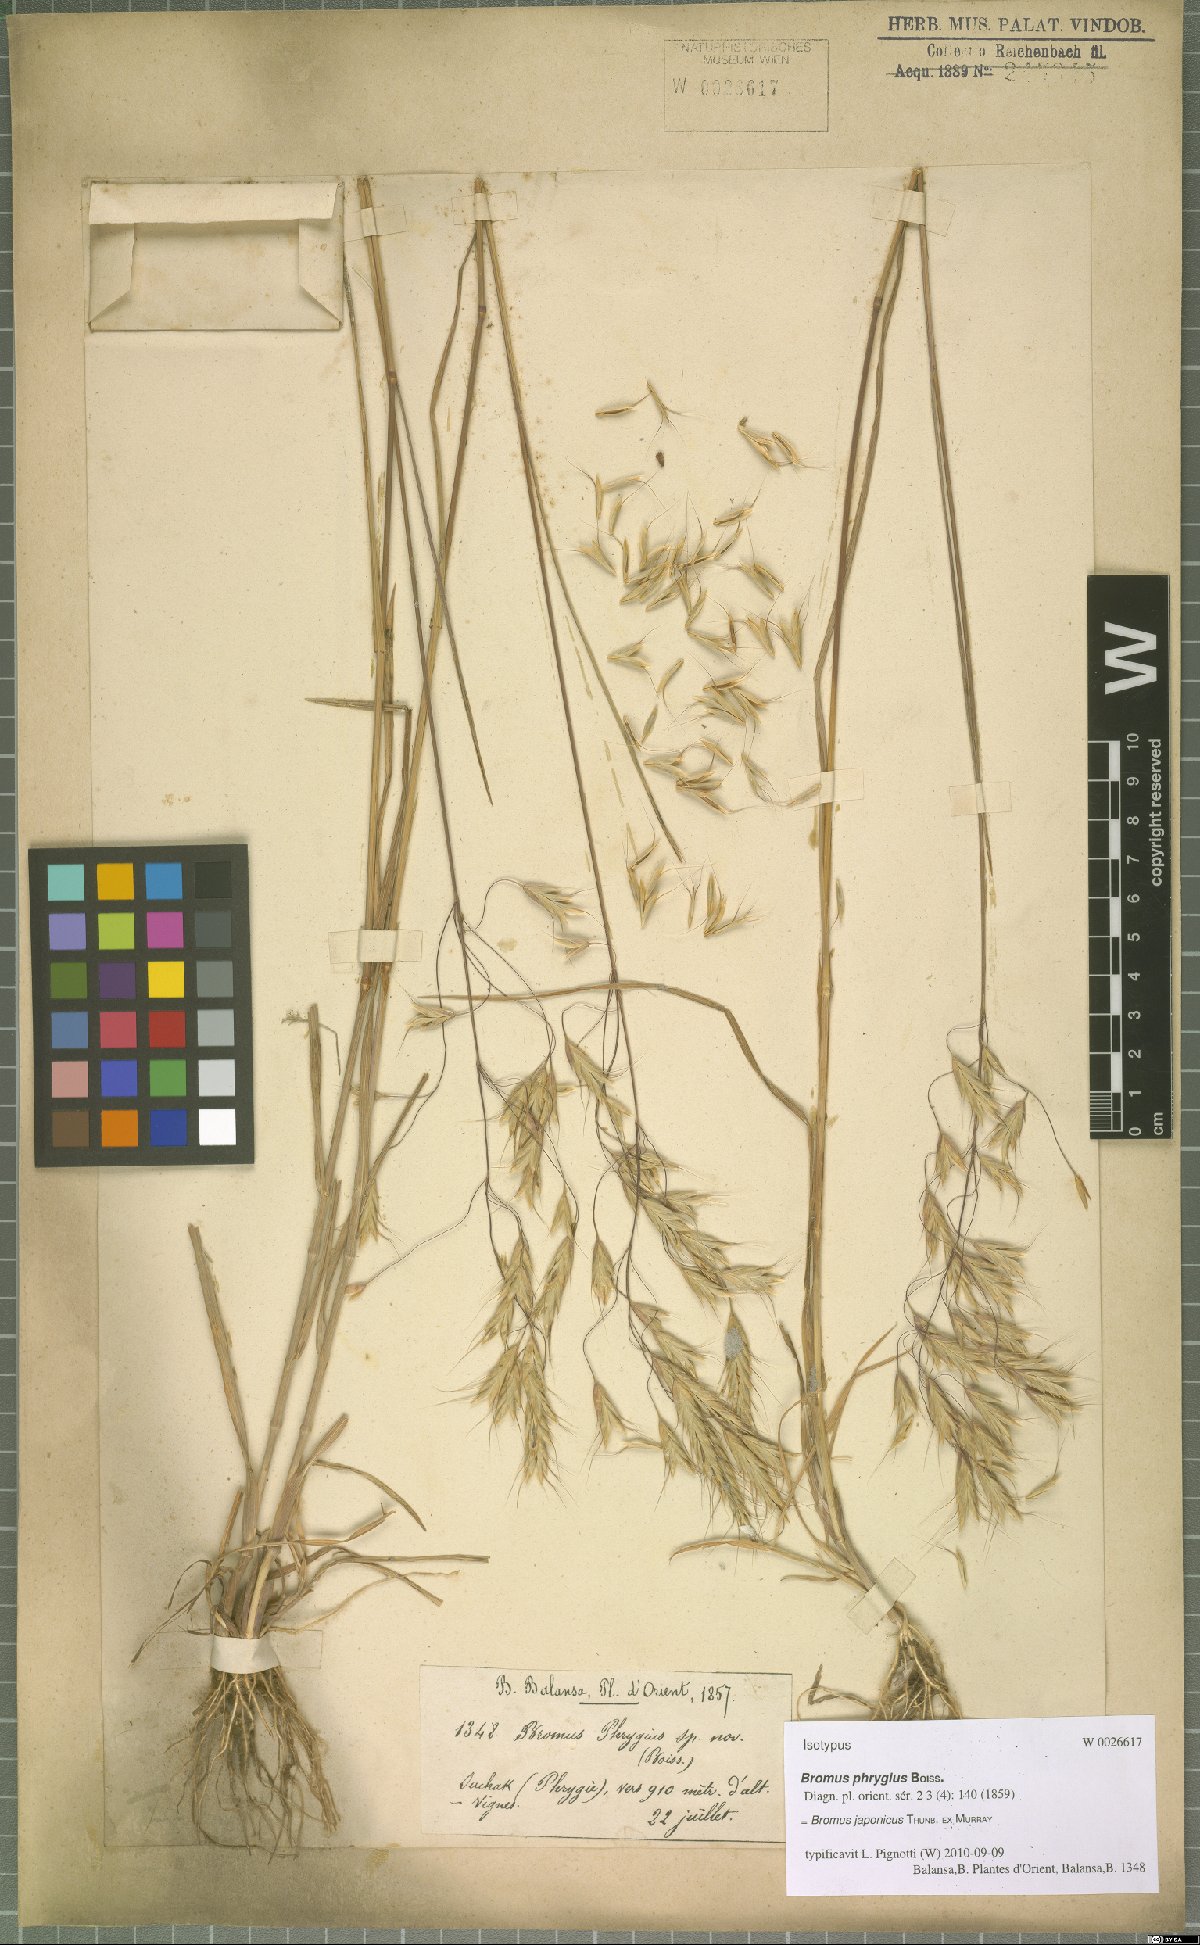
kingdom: Plantae
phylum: Tracheophyta
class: Liliopsida
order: Poales
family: Poaceae
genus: Bromus
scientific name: Bromus japonicus
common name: Japanese brome
